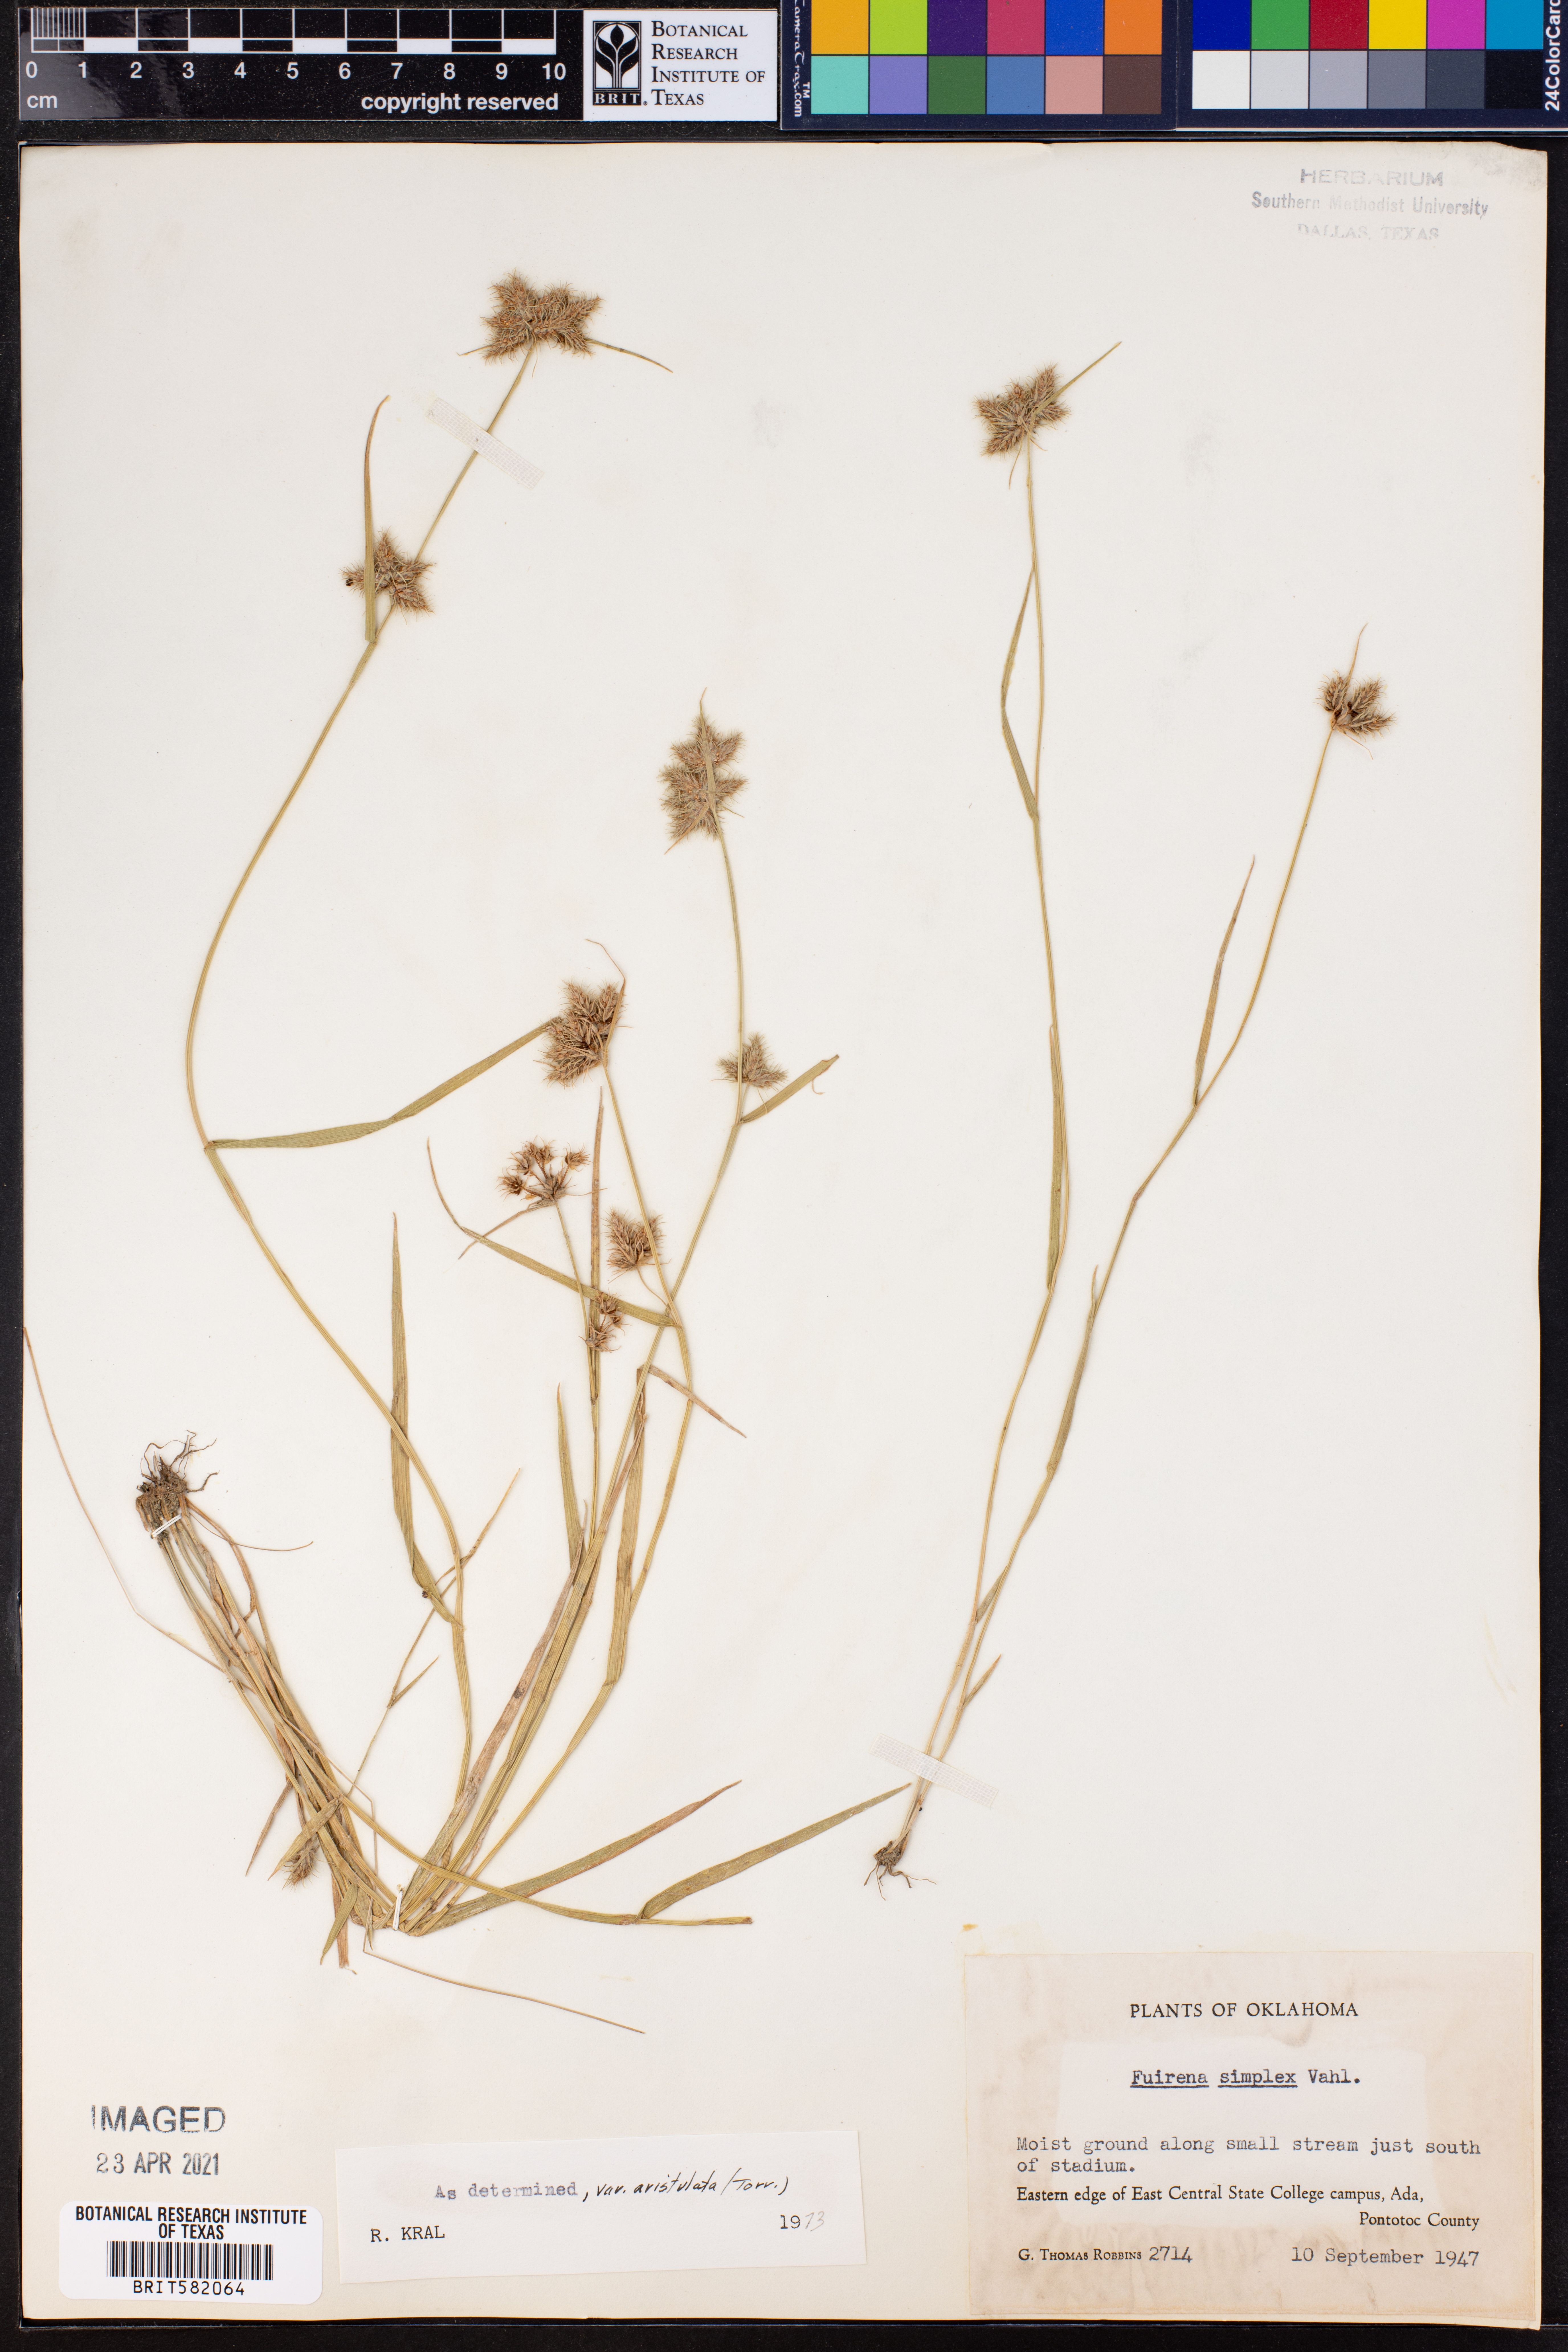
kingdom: Plantae
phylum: Tracheophyta
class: Liliopsida
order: Poales
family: Cyperaceae
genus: Fuirena
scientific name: Fuirena simplex
